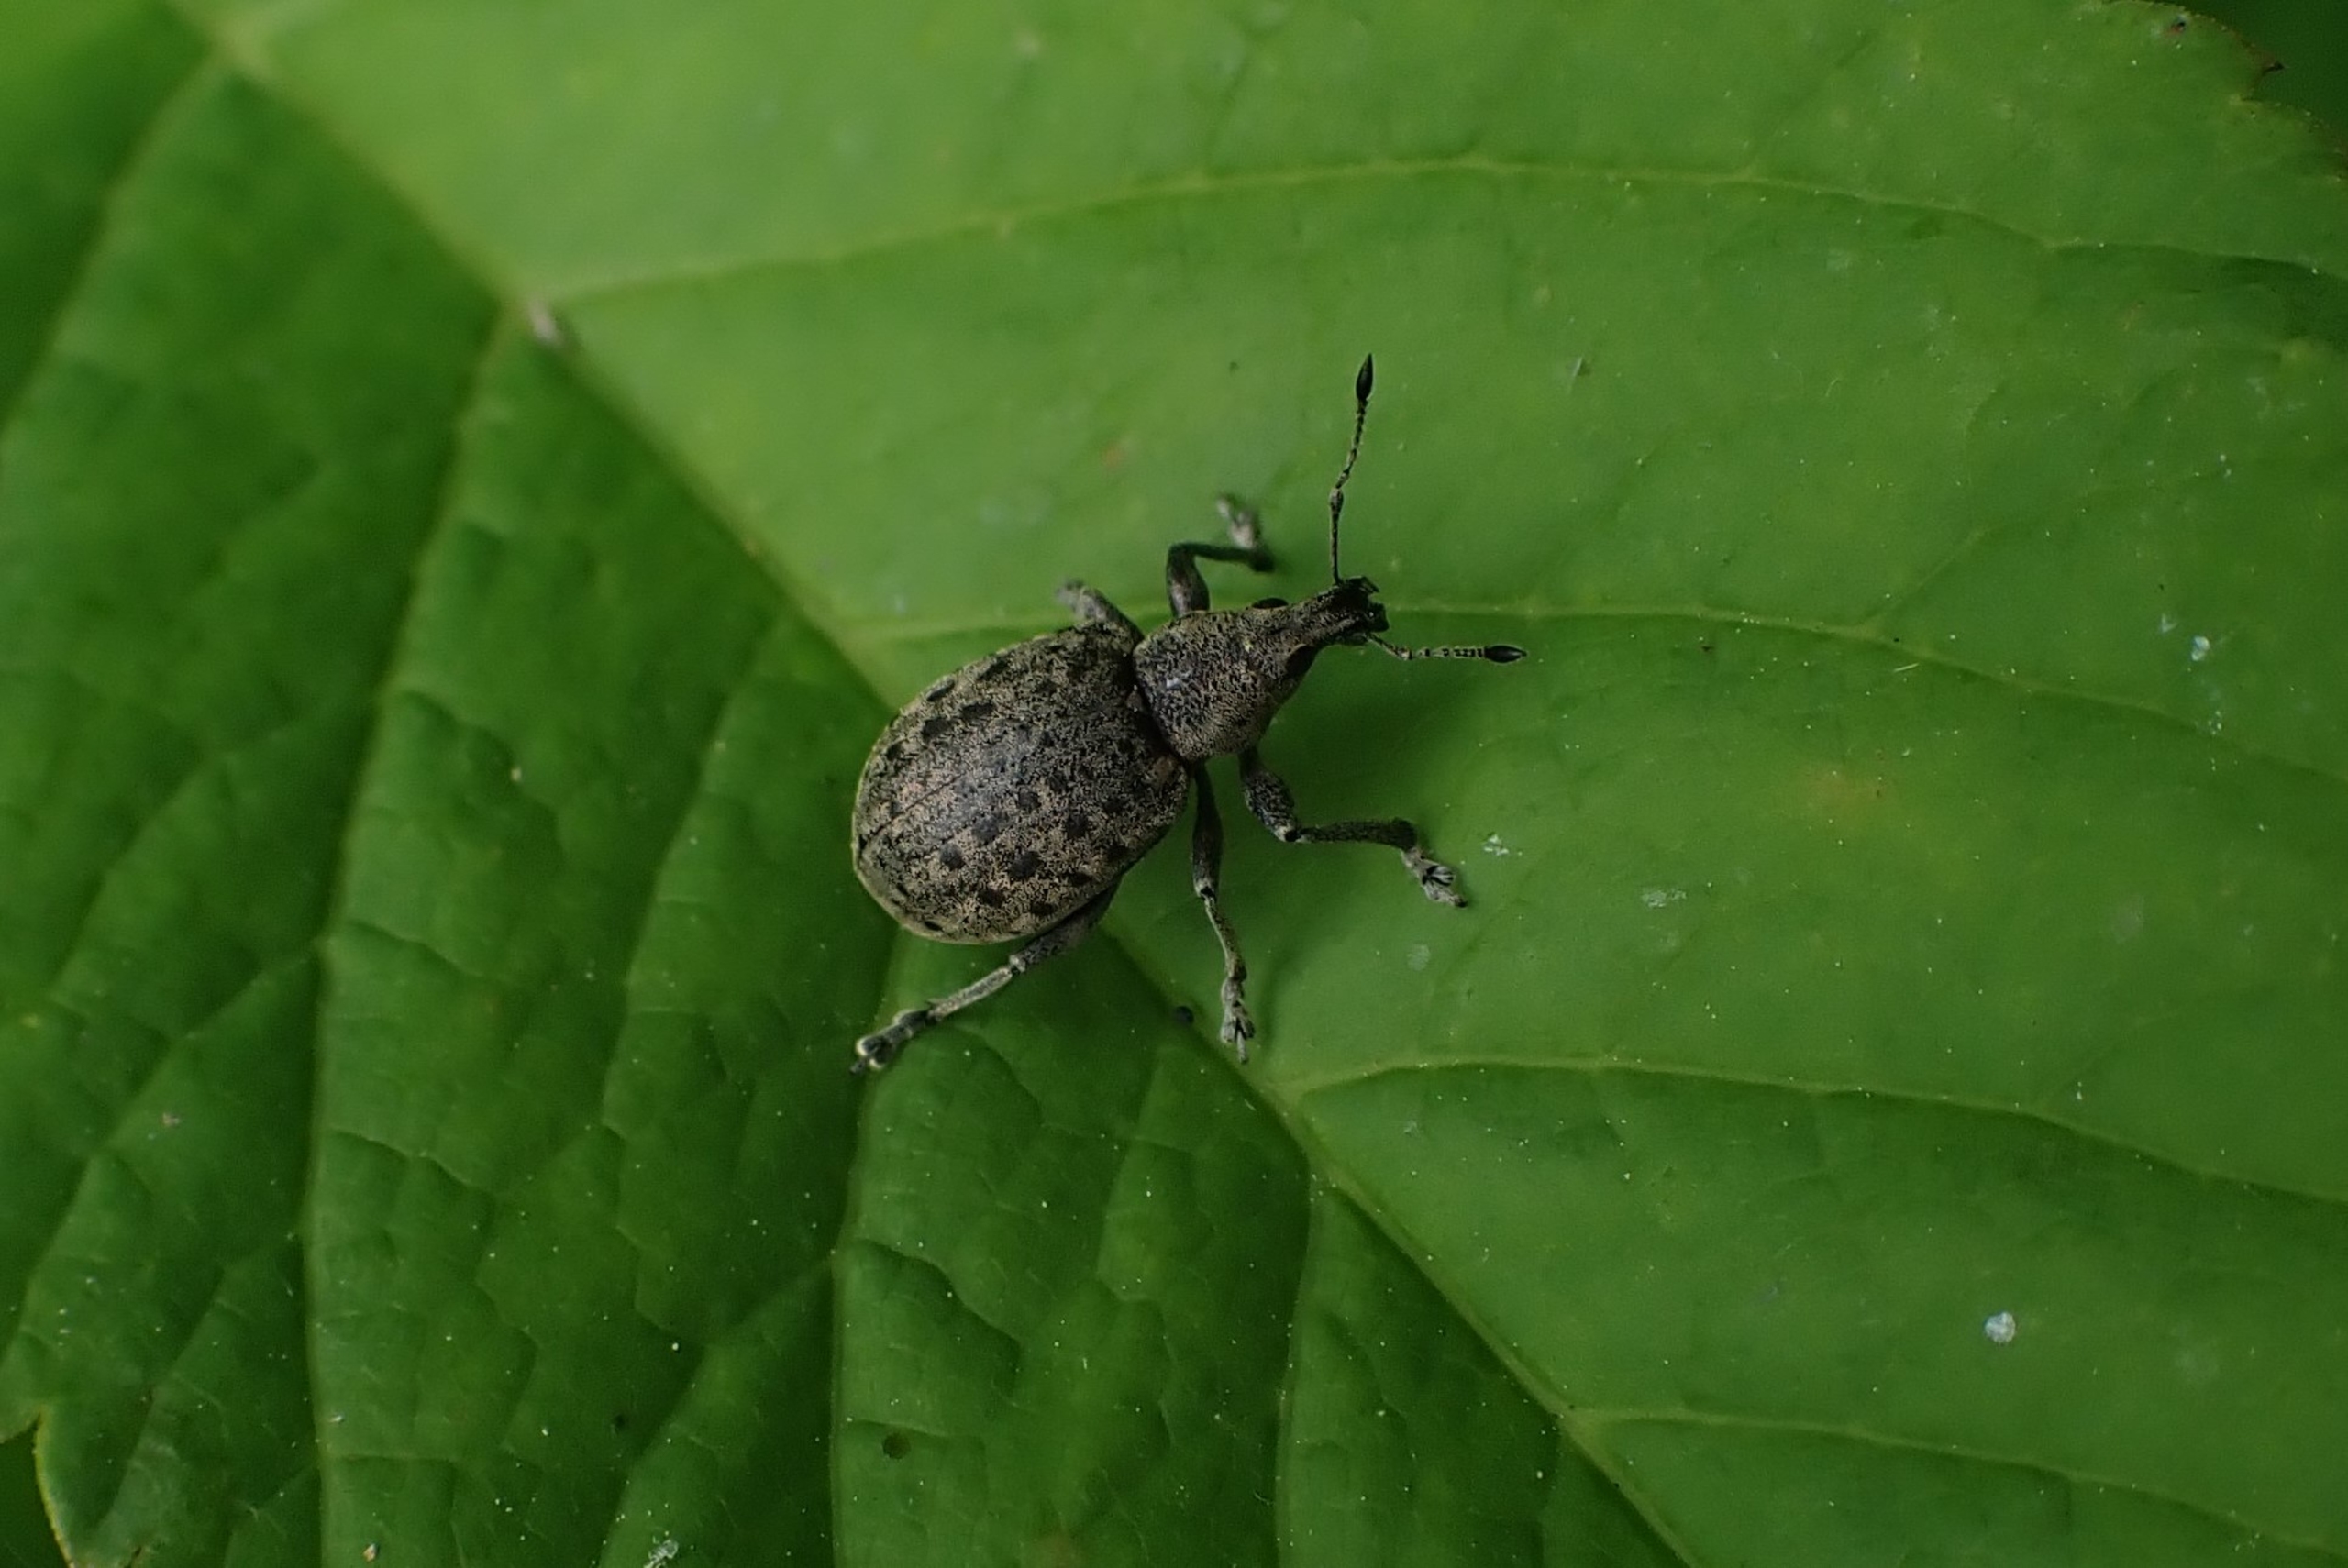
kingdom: Animalia
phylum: Arthropoda
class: Insecta
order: Coleoptera
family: Curculionidae
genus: Liophloeus
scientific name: Liophloeus tessulatus
